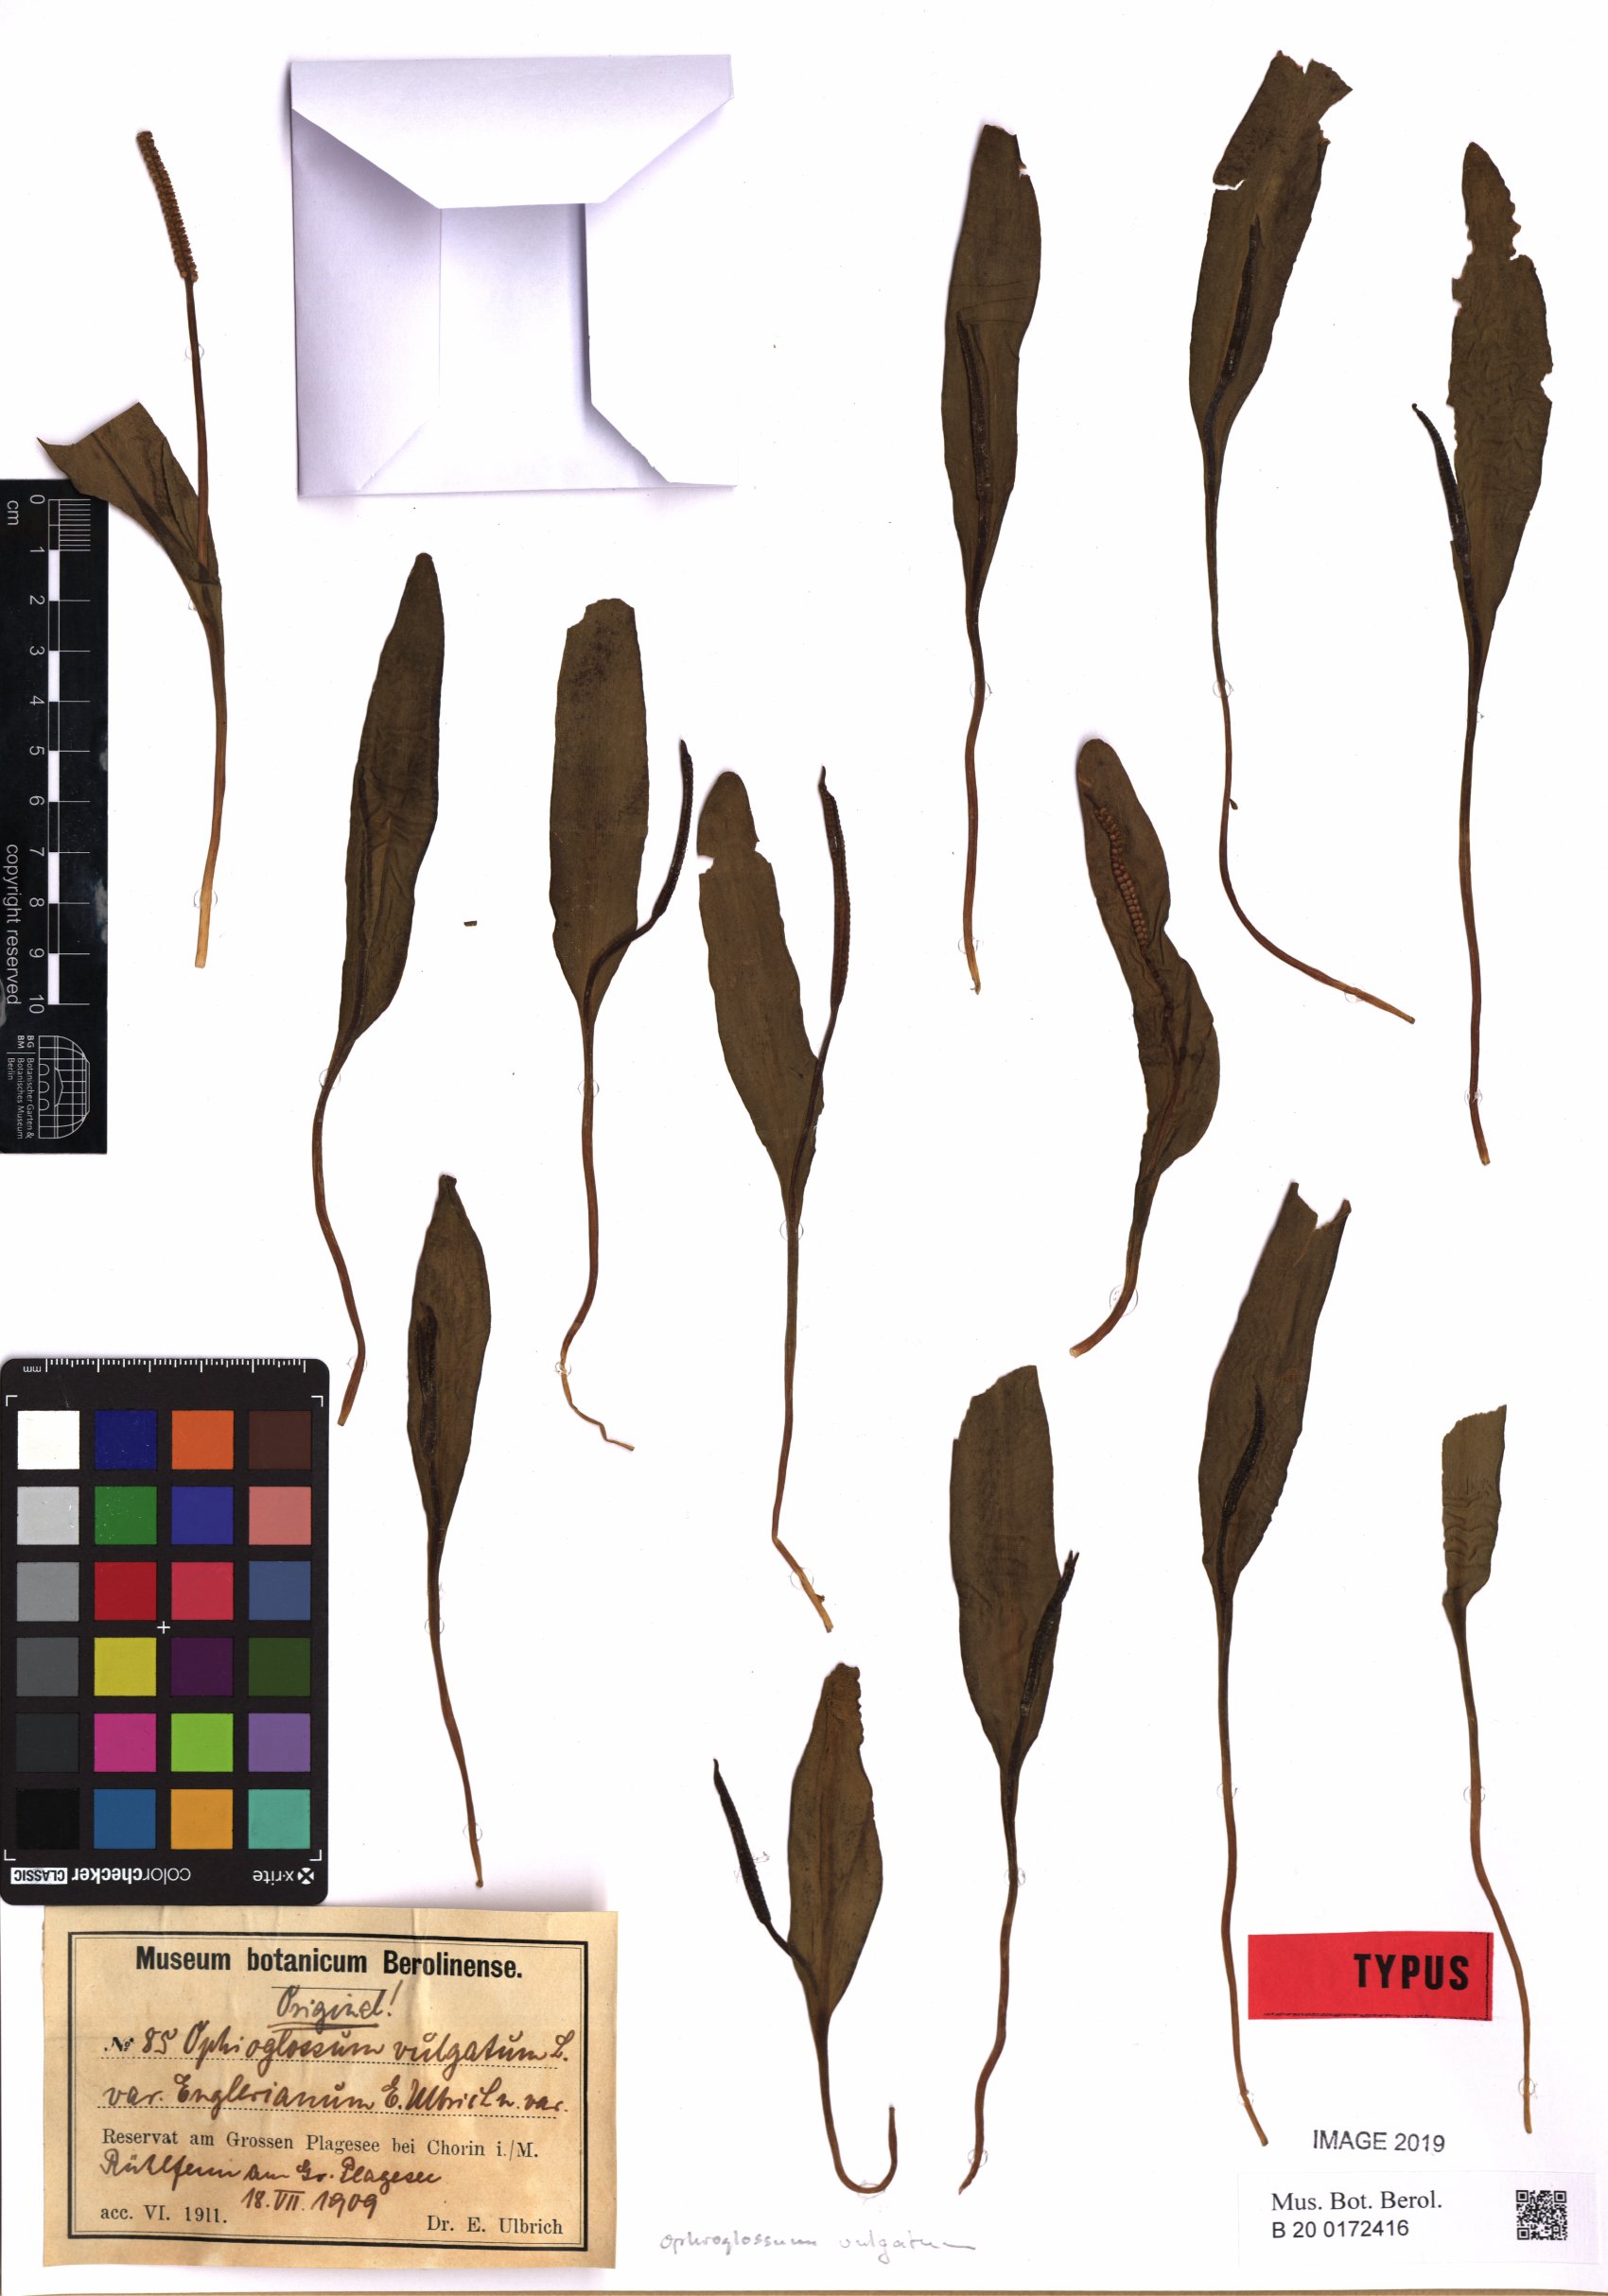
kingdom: Plantae
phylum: Tracheophyta
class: Polypodiopsida
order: Ophioglossales
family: Ophioglossaceae
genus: Ophioglossum
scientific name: Ophioglossum vulgatum
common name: Adder's-tongue
